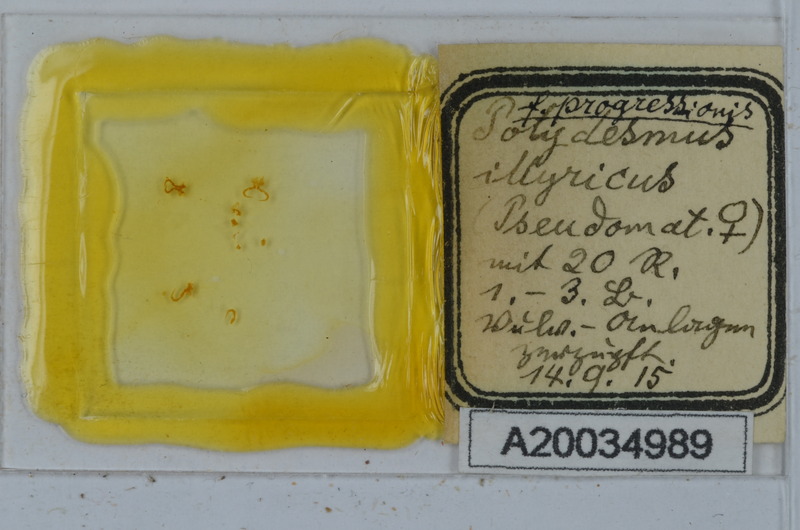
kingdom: Animalia
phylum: Arthropoda
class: Diplopoda
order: Polydesmida
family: Polydesmidae
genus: Polydesmus
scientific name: Polydesmus complanatus
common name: Flat-backed millipede
